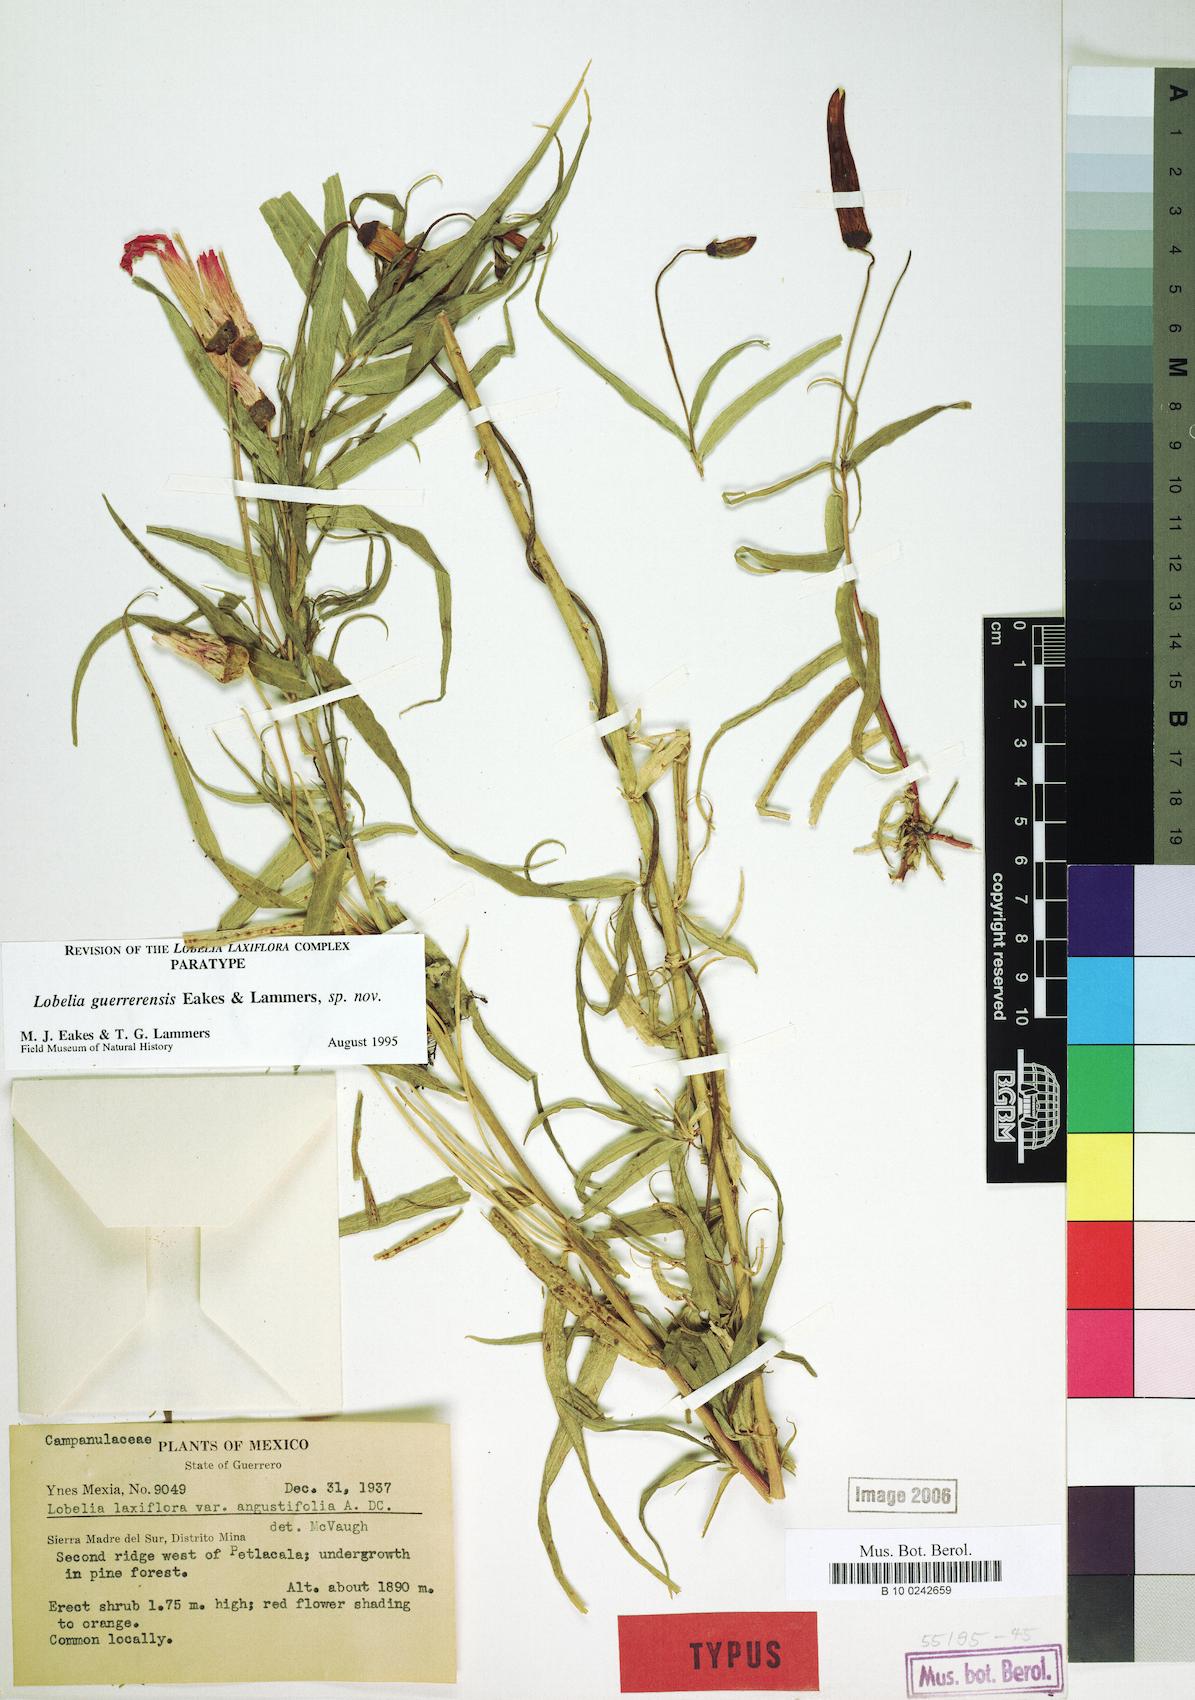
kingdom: Plantae
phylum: Tracheophyta
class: Magnoliopsida
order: Asterales
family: Campanulaceae
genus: Lobelia
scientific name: Lobelia guerrerensis
